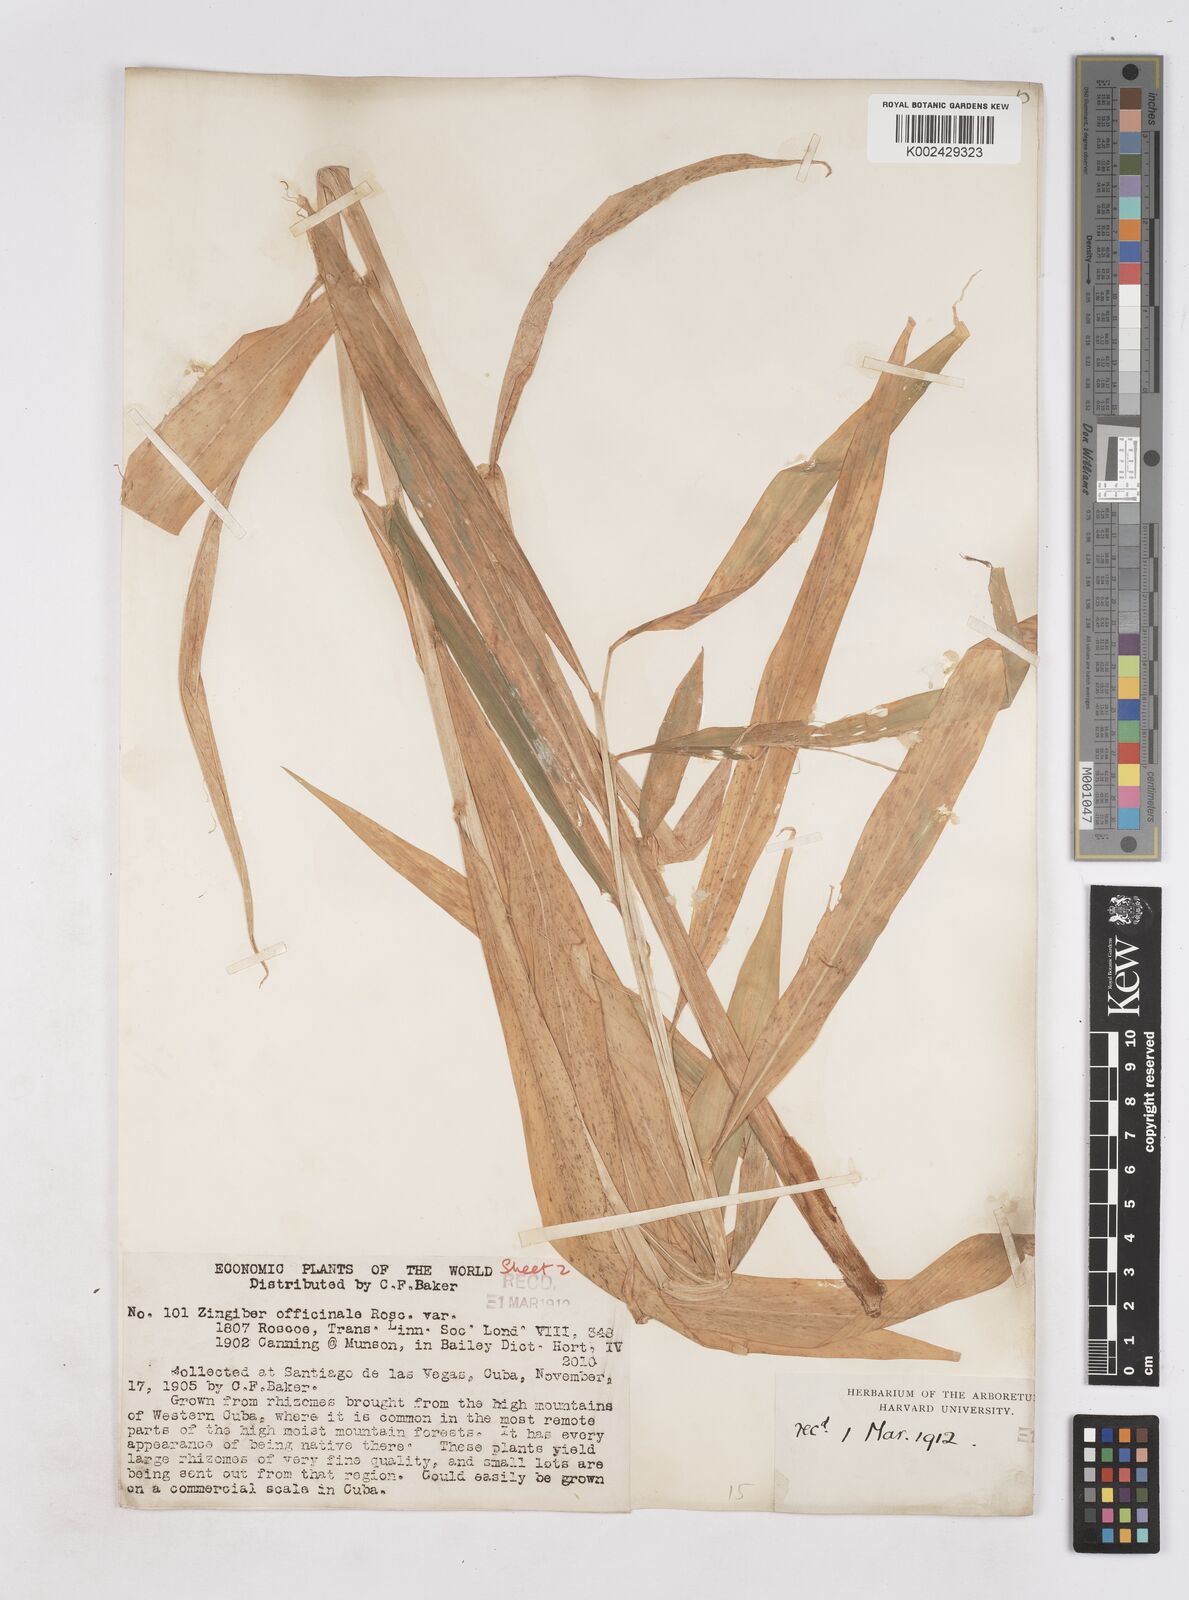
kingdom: Plantae
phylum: Tracheophyta
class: Liliopsida
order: Zingiberales
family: Zingiberaceae
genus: Zingiber
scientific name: Zingiber officinale
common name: Ginger
